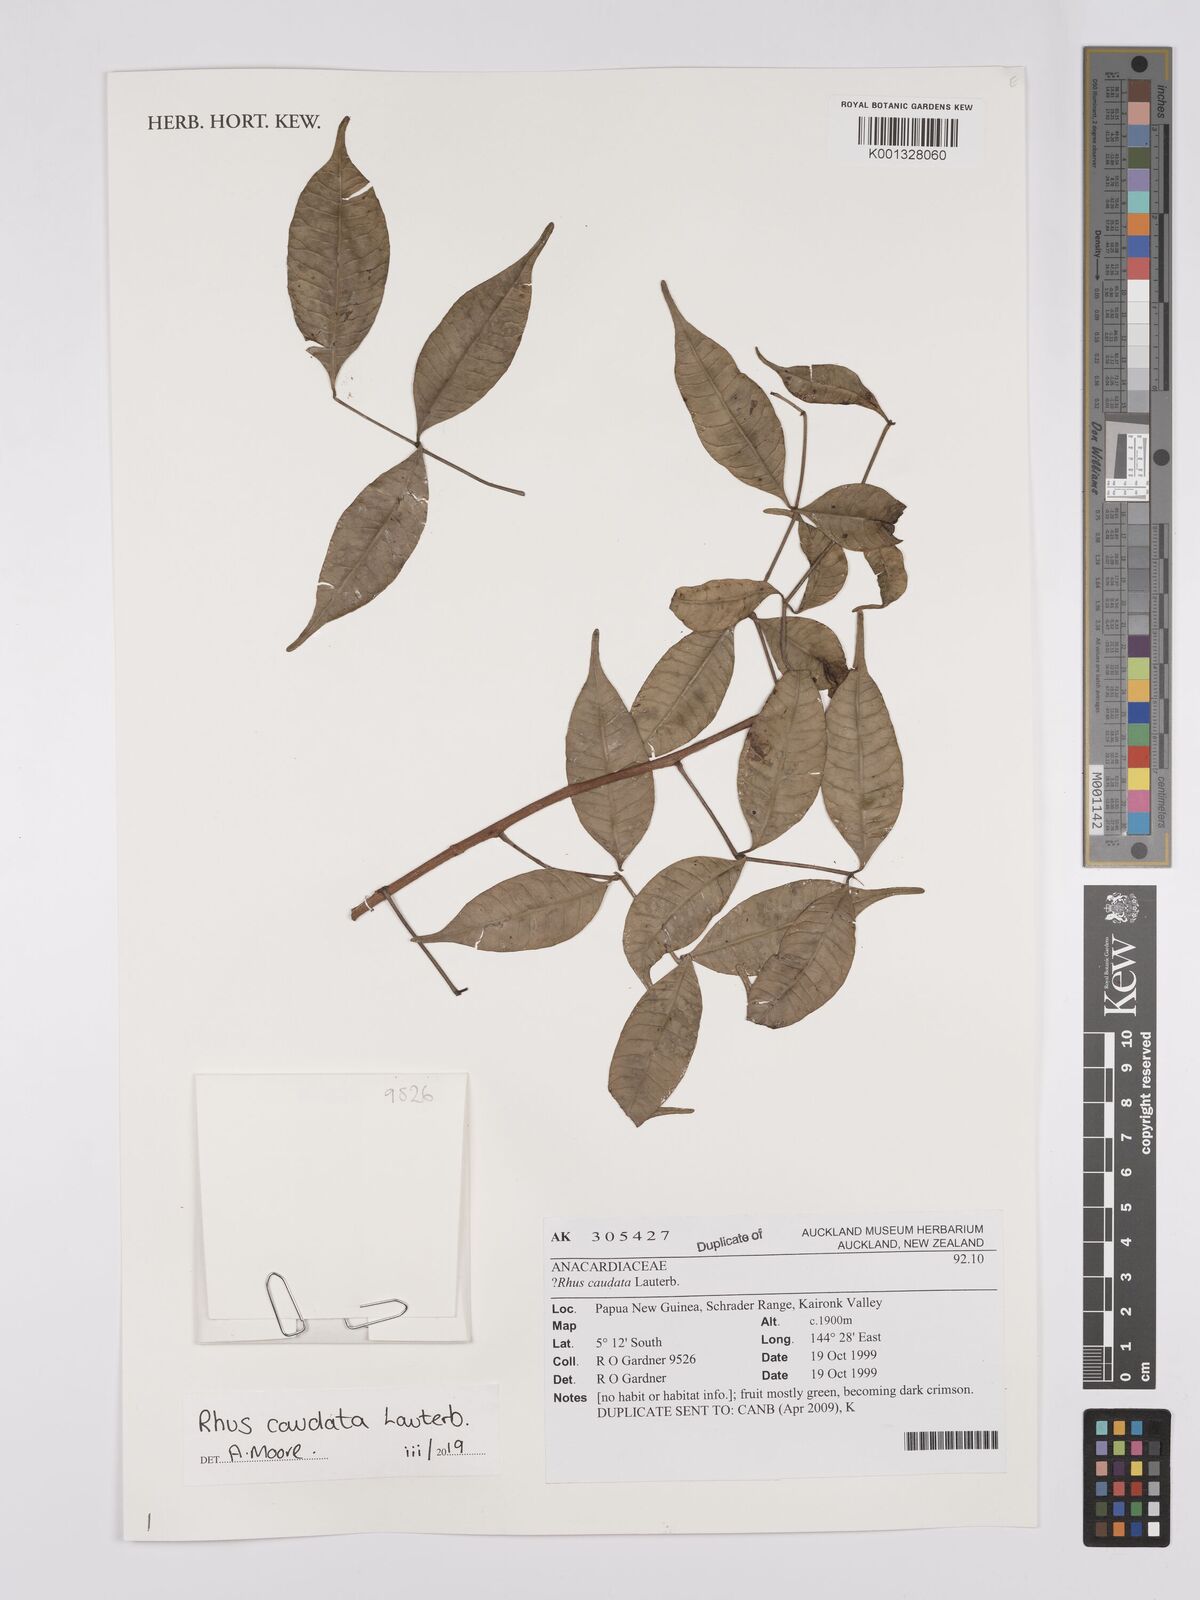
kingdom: Plantae
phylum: Tracheophyta
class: Magnoliopsida
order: Sapindales
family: Anacardiaceae
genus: Rhus
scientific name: Rhus caudata
